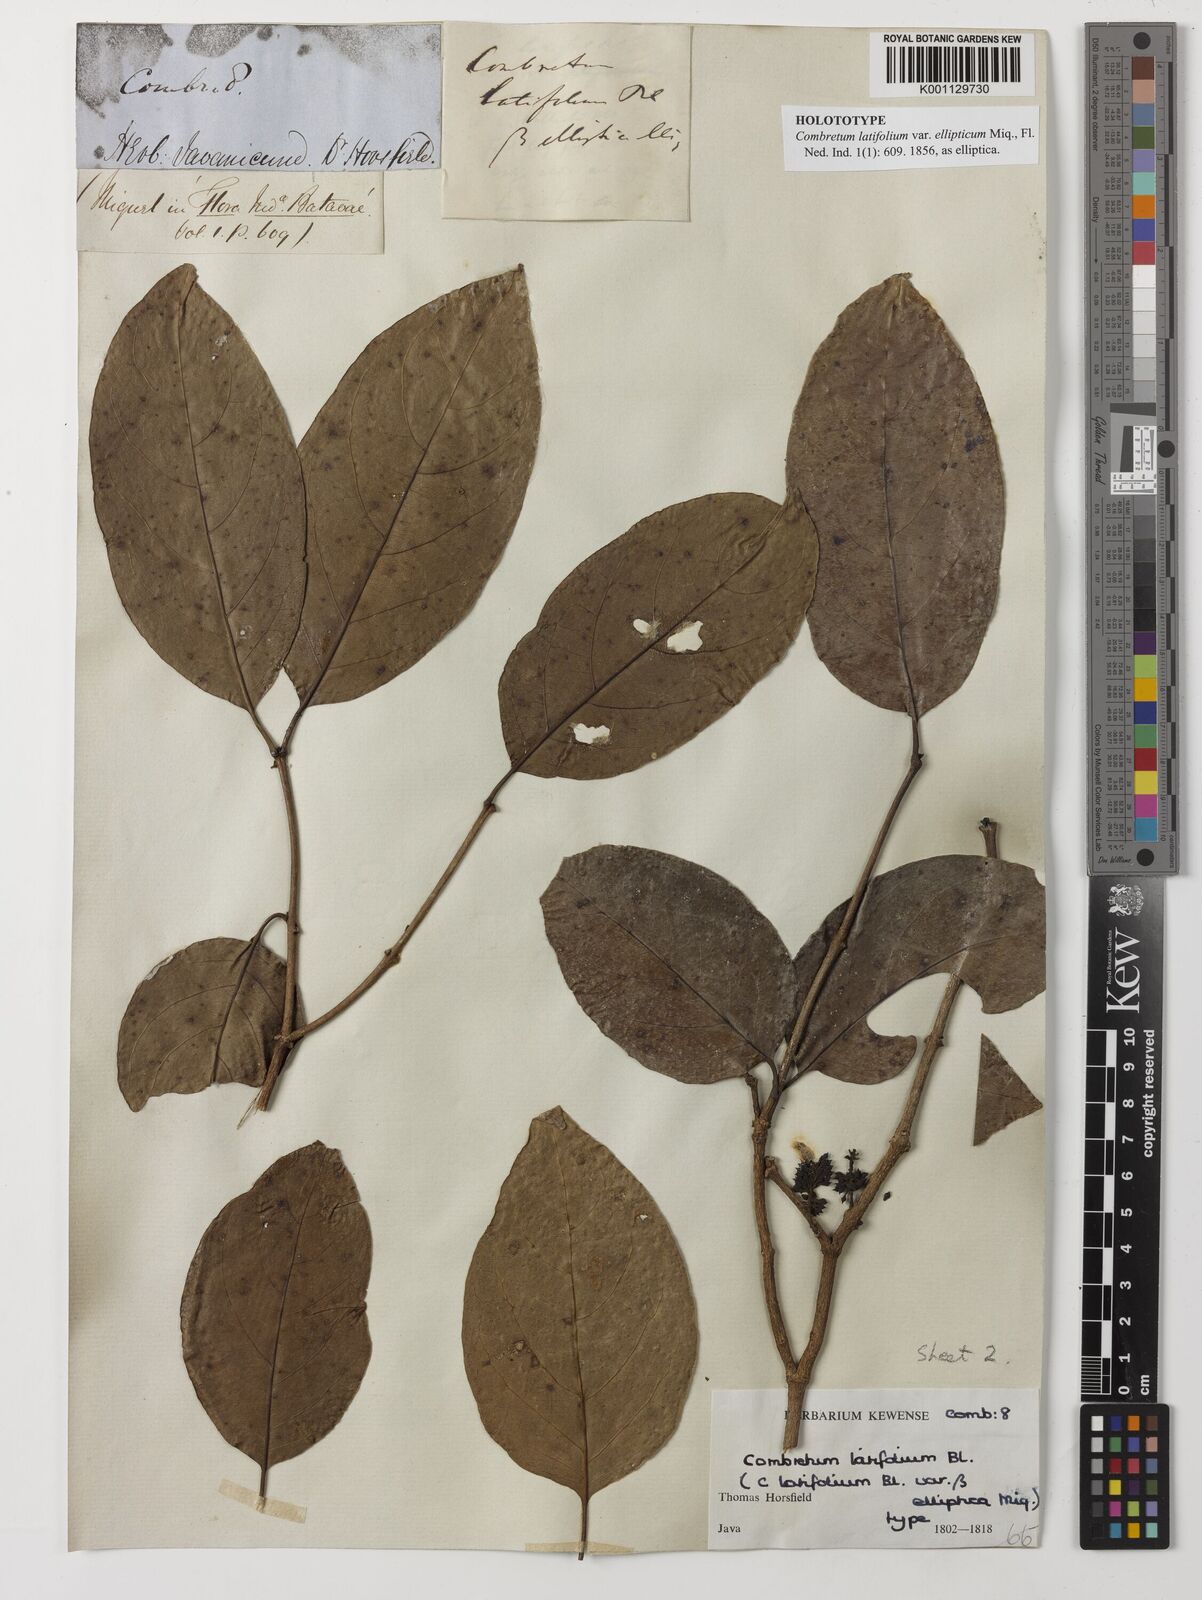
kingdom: Plantae
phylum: Tracheophyta
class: Magnoliopsida
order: Myrtales
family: Combretaceae
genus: Combretum
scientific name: Combretum latifolium
